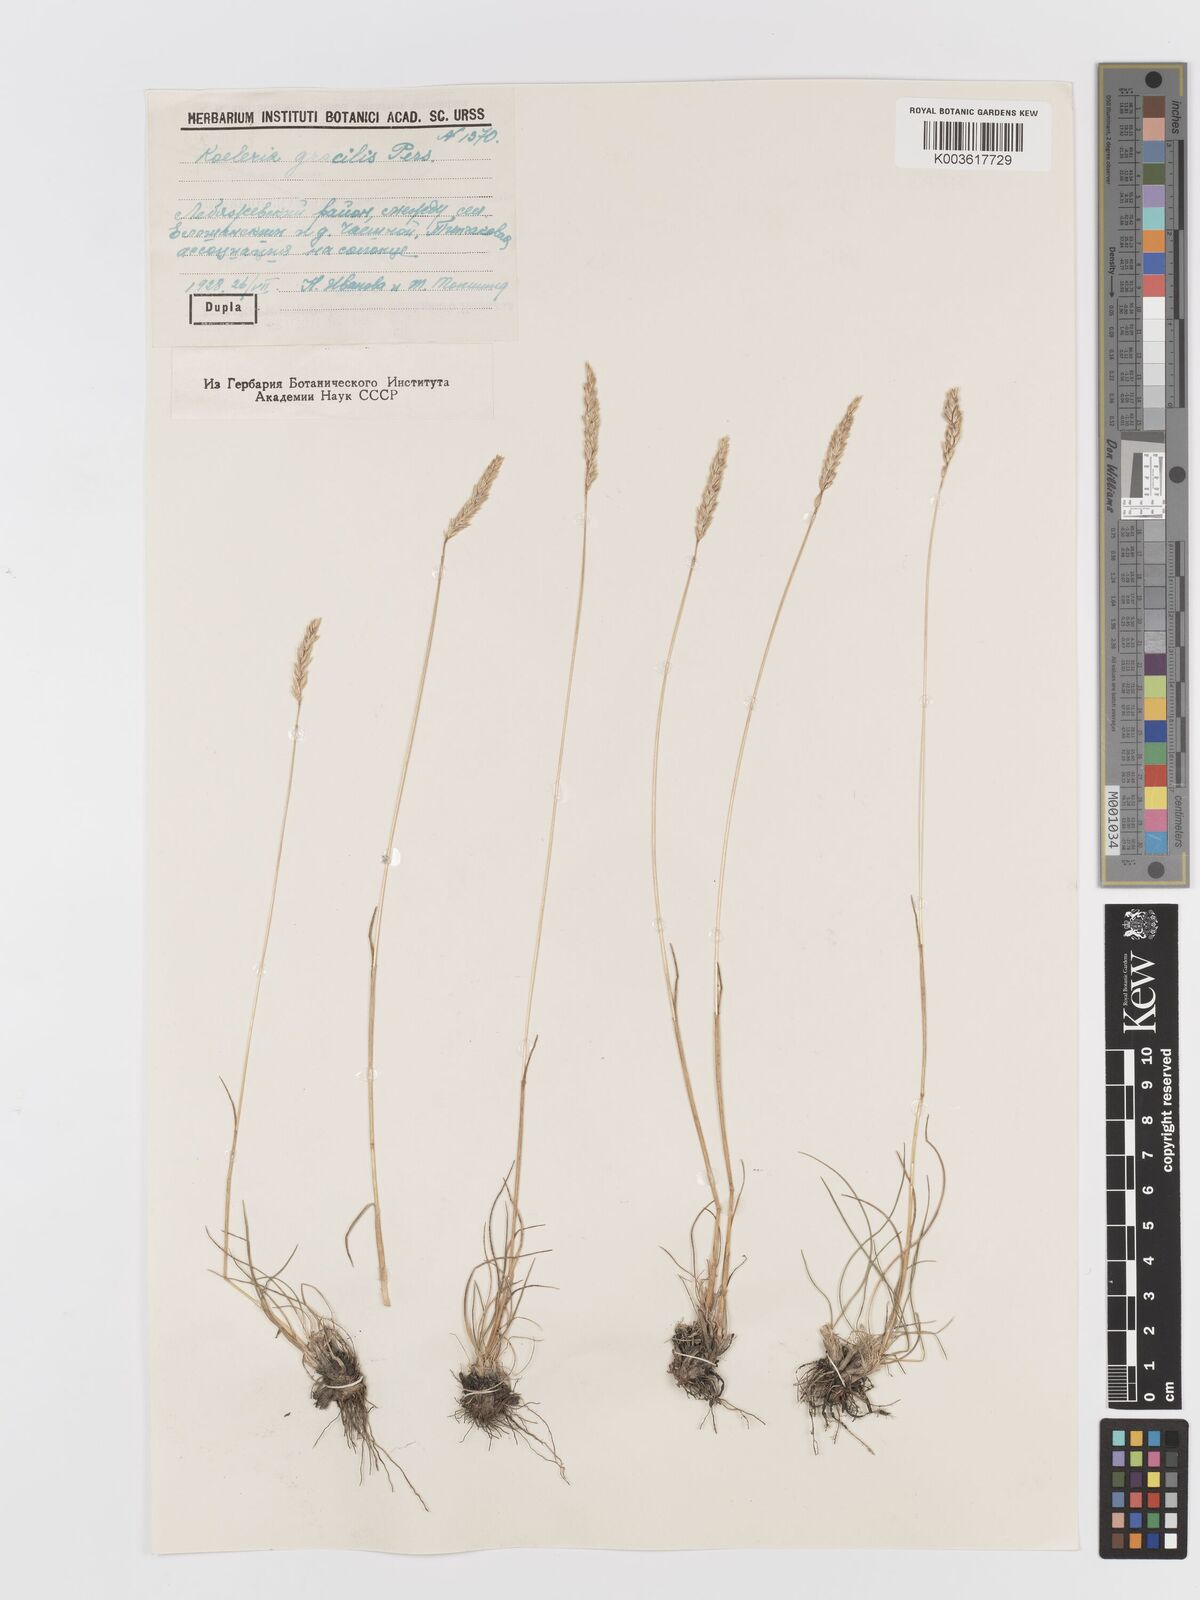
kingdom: Plantae
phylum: Tracheophyta
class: Liliopsida
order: Poales
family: Poaceae
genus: Koeleria
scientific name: Koeleria splendens
